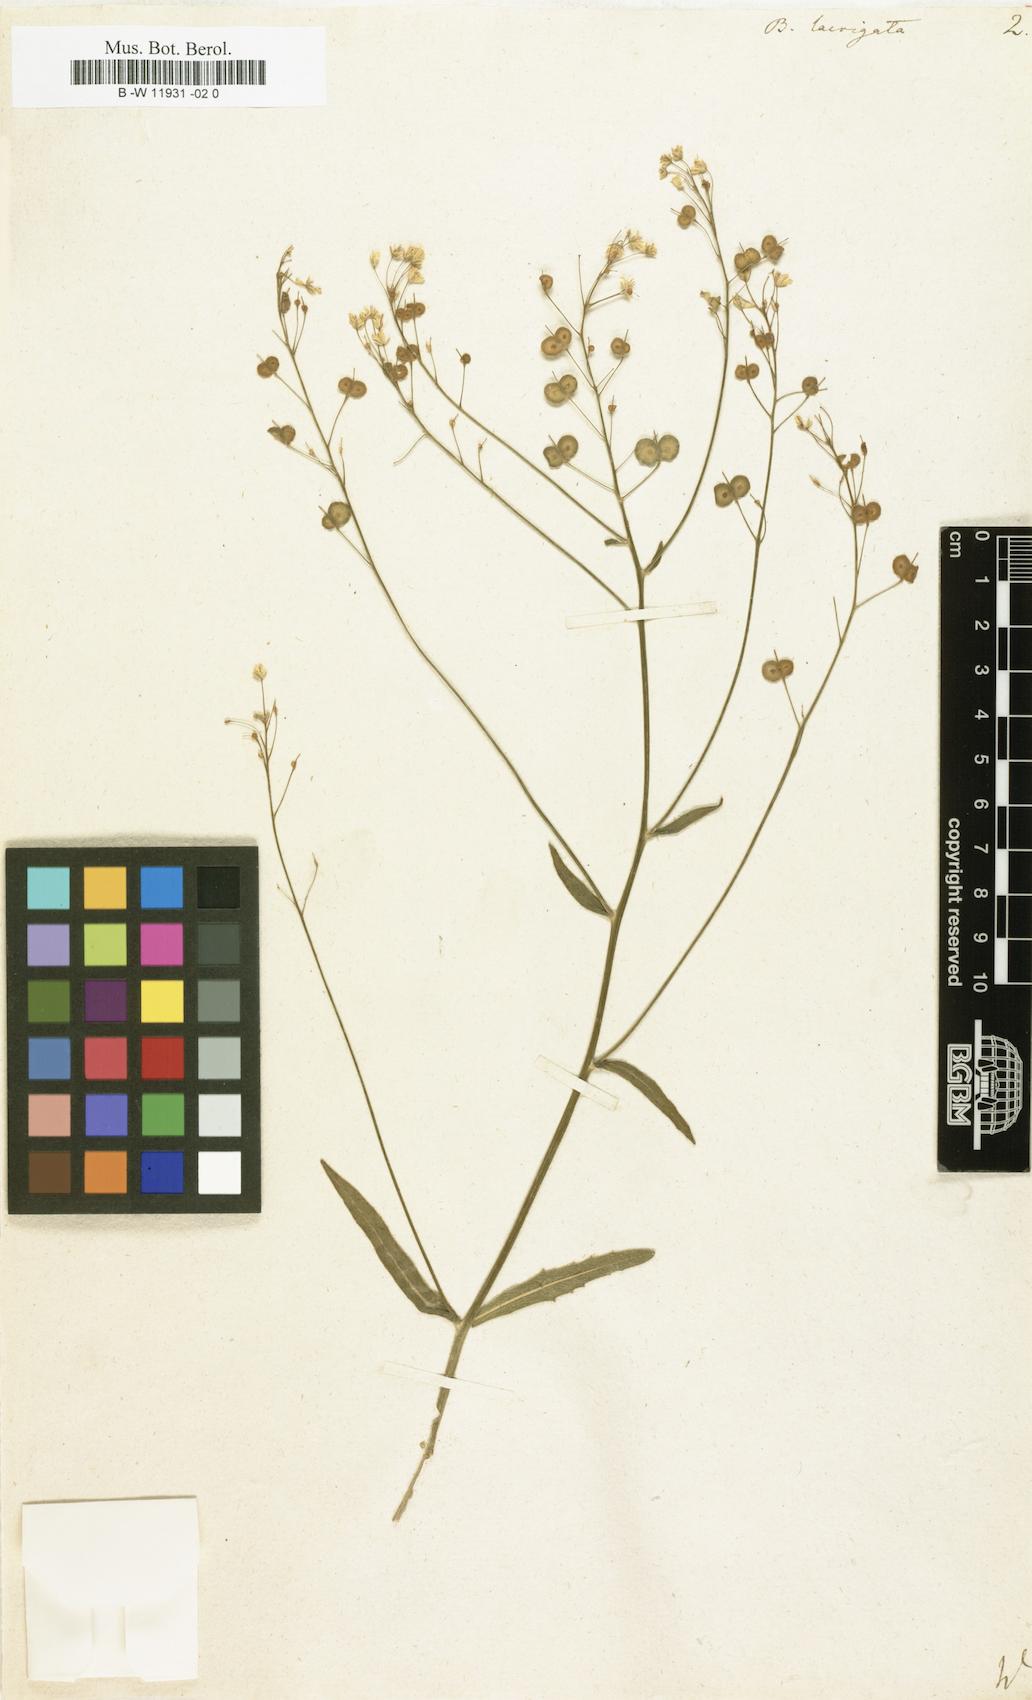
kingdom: Plantae
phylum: Tracheophyta
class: Magnoliopsida
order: Brassicales
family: Brassicaceae
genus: Biscutella
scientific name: Biscutella laevigata
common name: Buckler mustard
